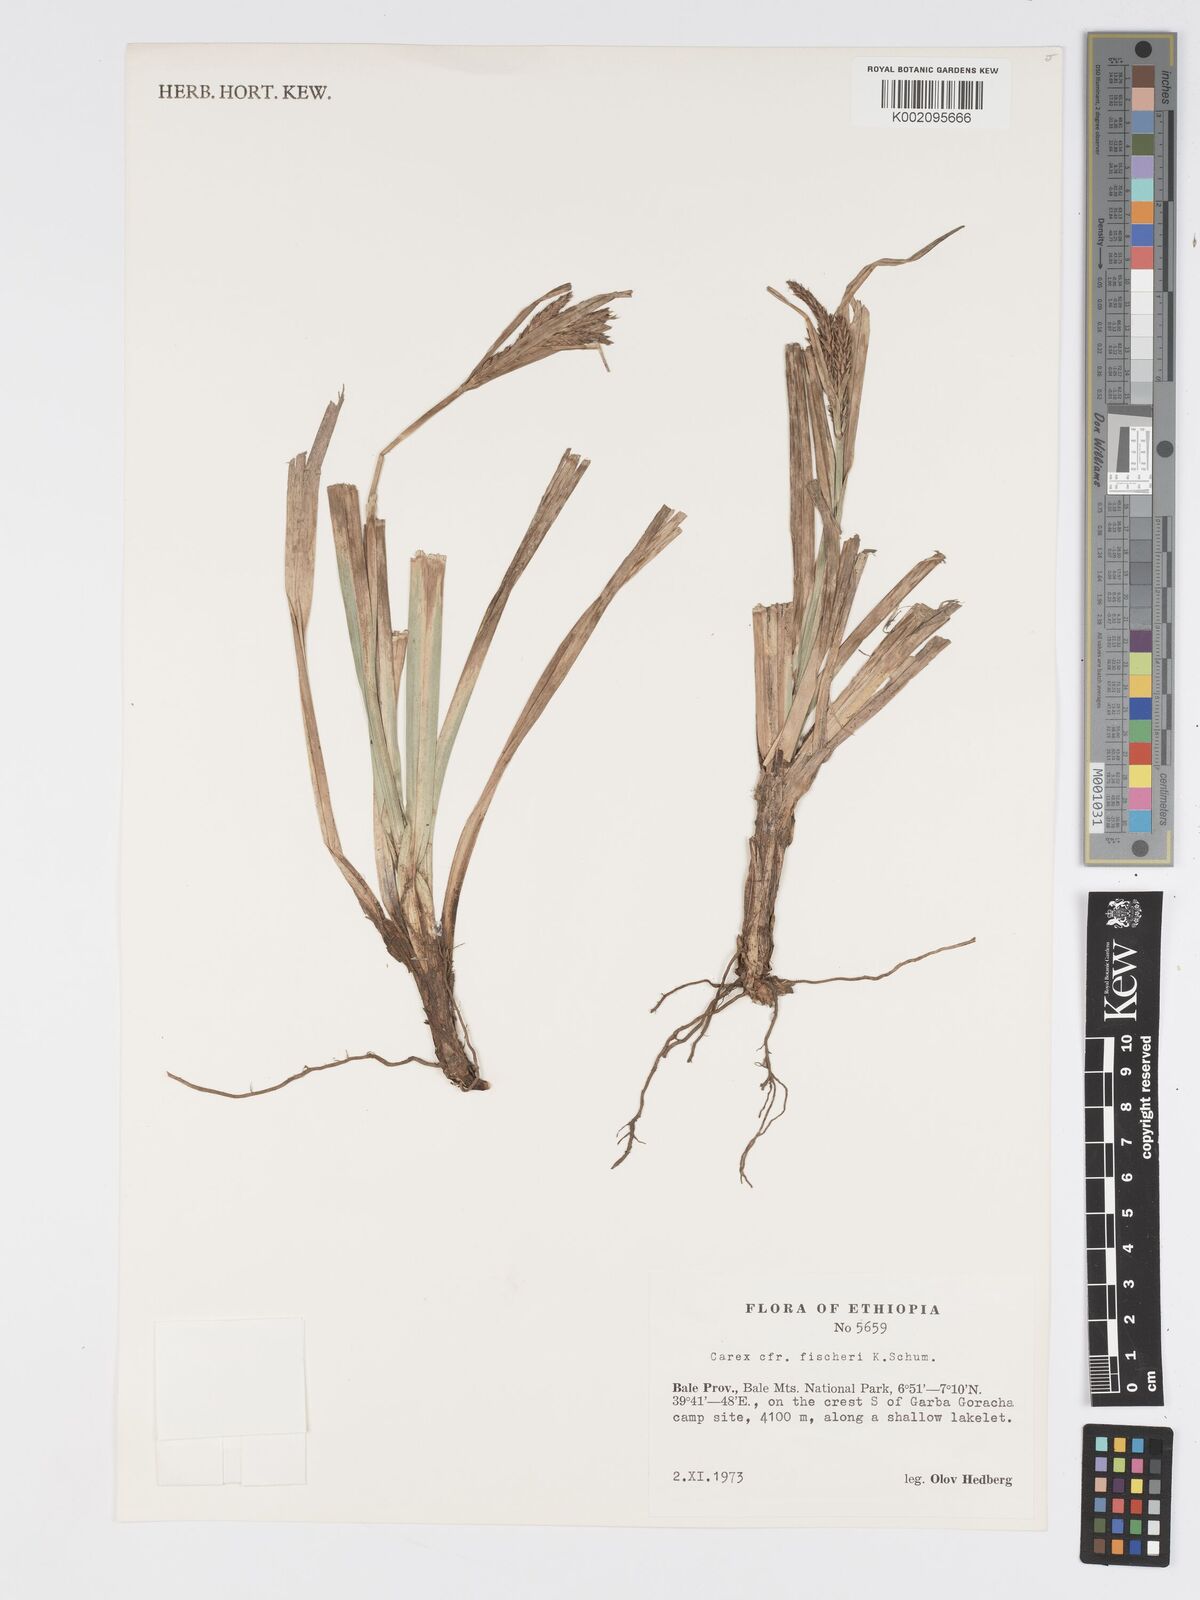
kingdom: Plantae
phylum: Tracheophyta
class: Liliopsida
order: Poales
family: Cyperaceae
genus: Carex
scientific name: Carex fischeri
